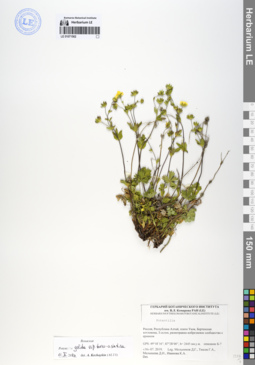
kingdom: Plantae
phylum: Tracheophyta
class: Magnoliopsida
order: Rosales
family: Rosaceae
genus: Potentilla
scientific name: Potentilla crantzii
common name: Alpine cinquefoil
